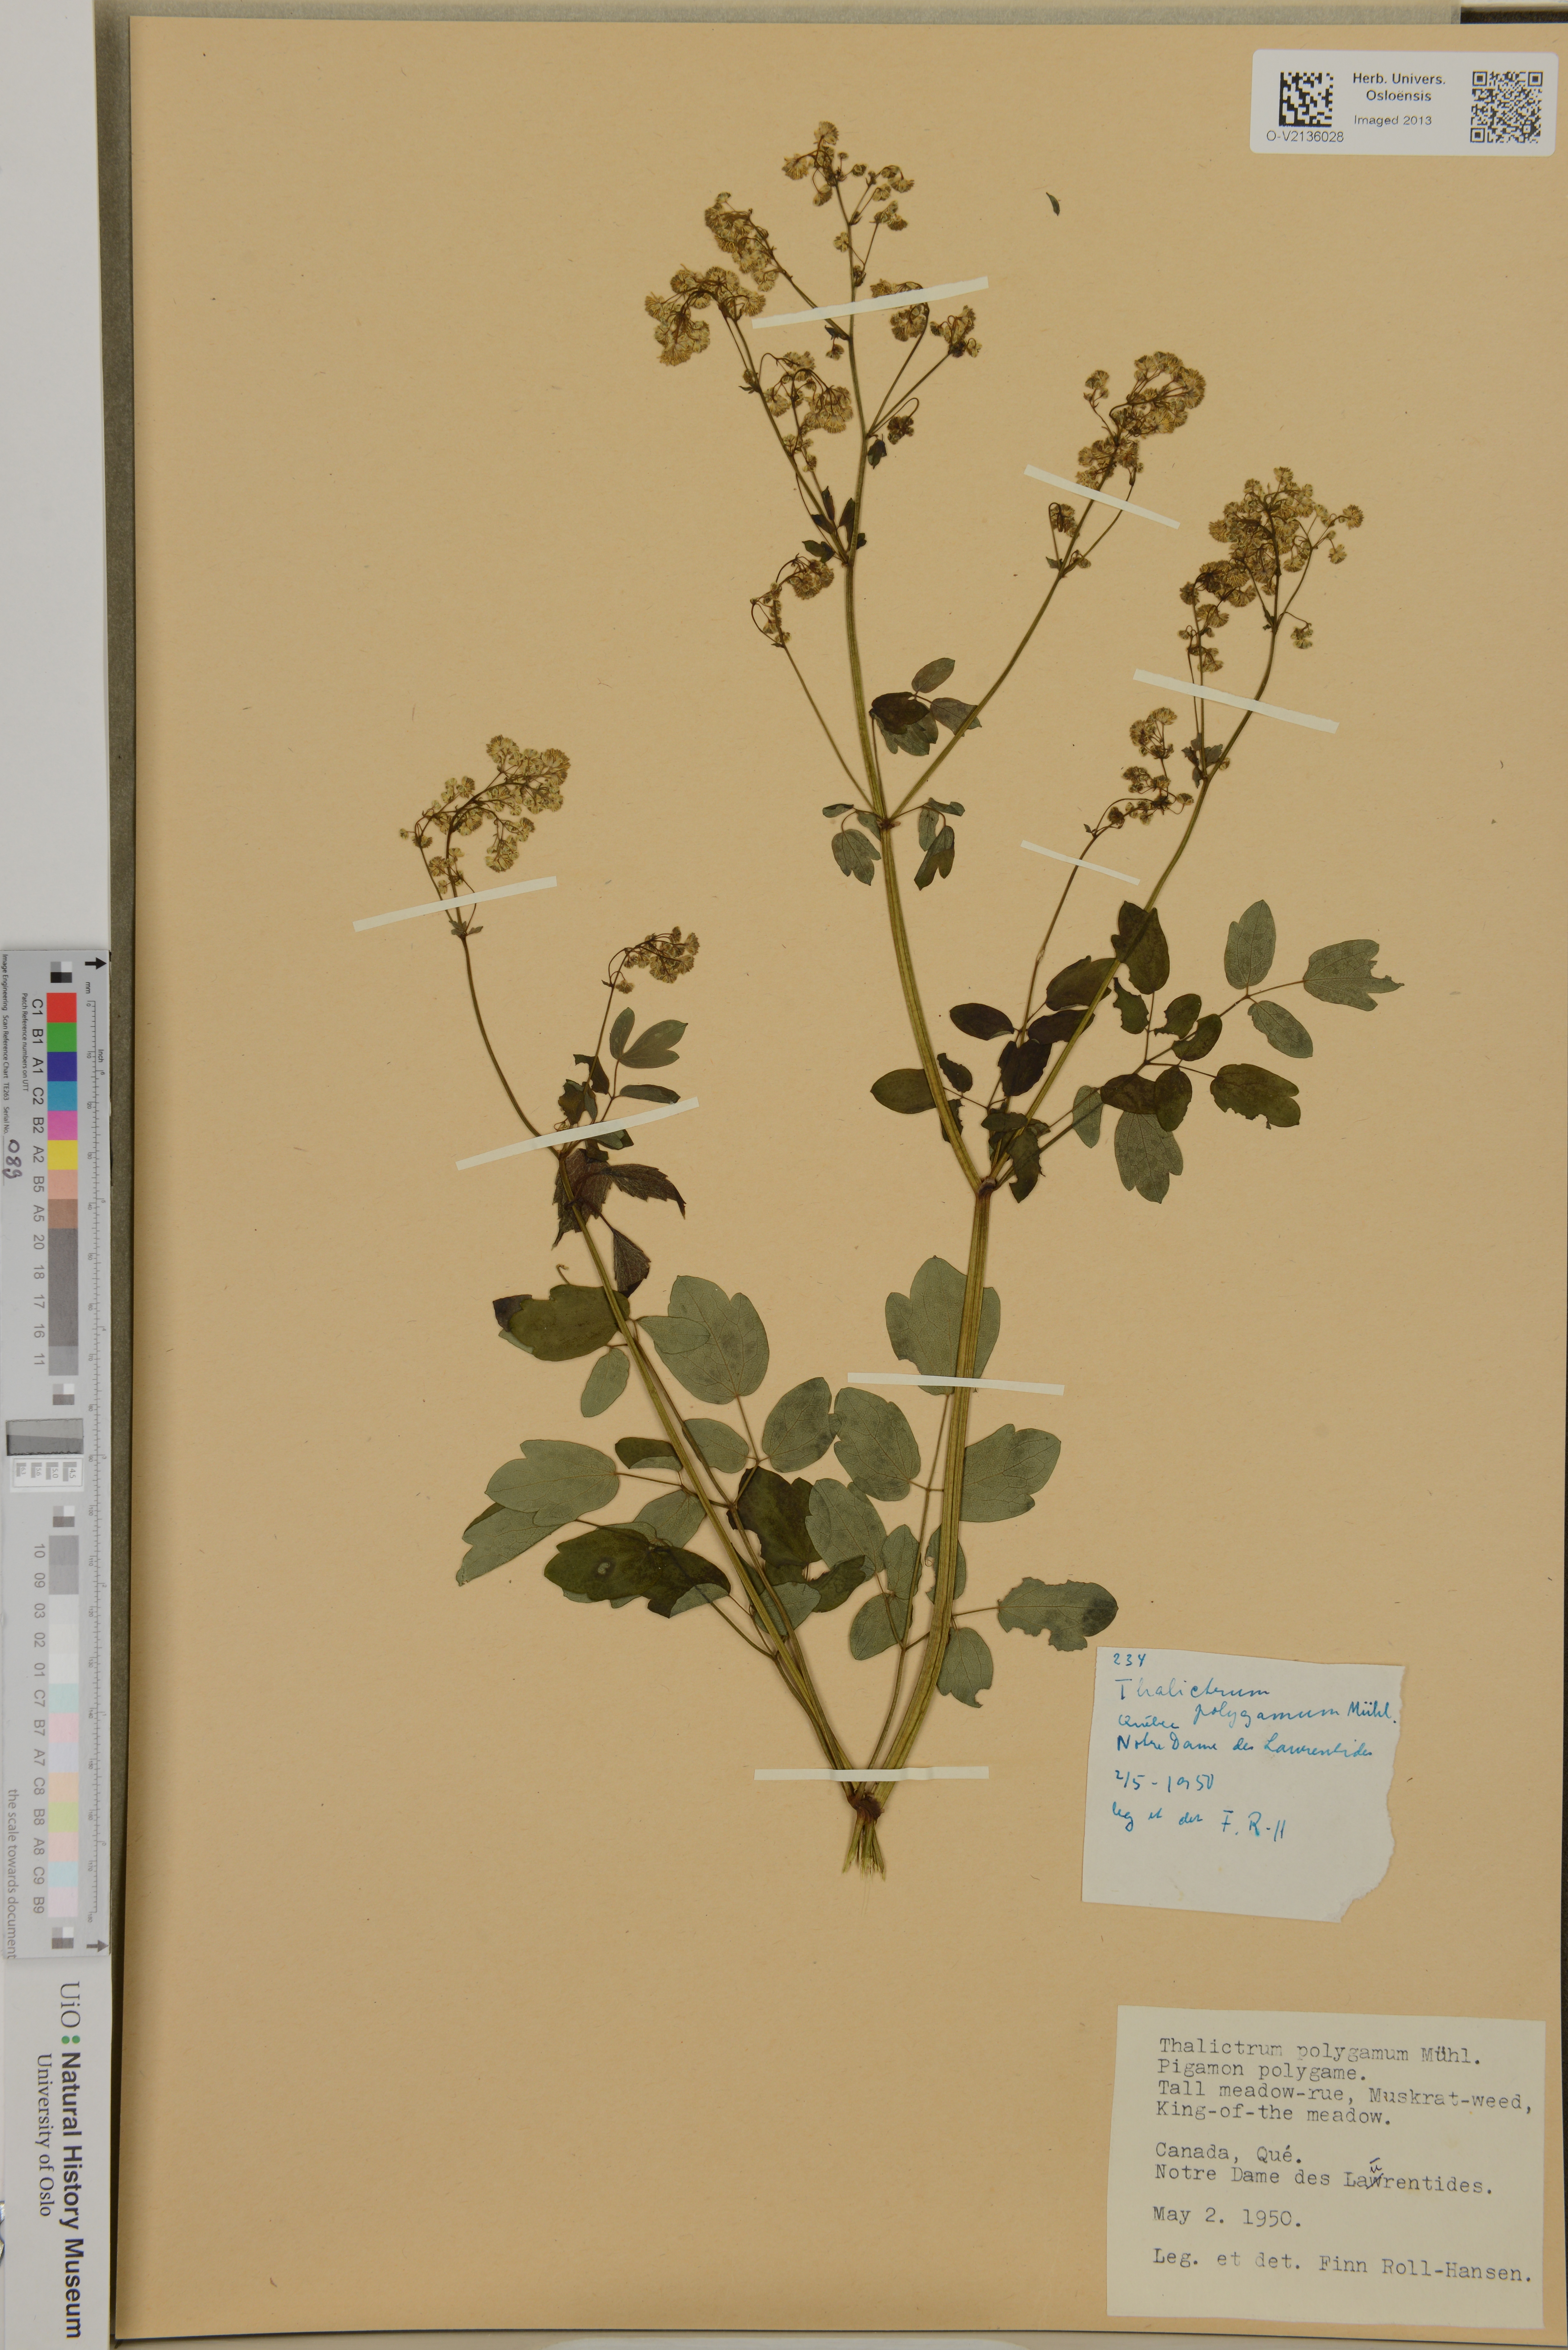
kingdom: Plantae
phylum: Tracheophyta
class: Magnoliopsida
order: Ranunculales
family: Ranunculaceae
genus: Thalictrum
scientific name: Thalictrum pubescens
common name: King-of-the-meadow
